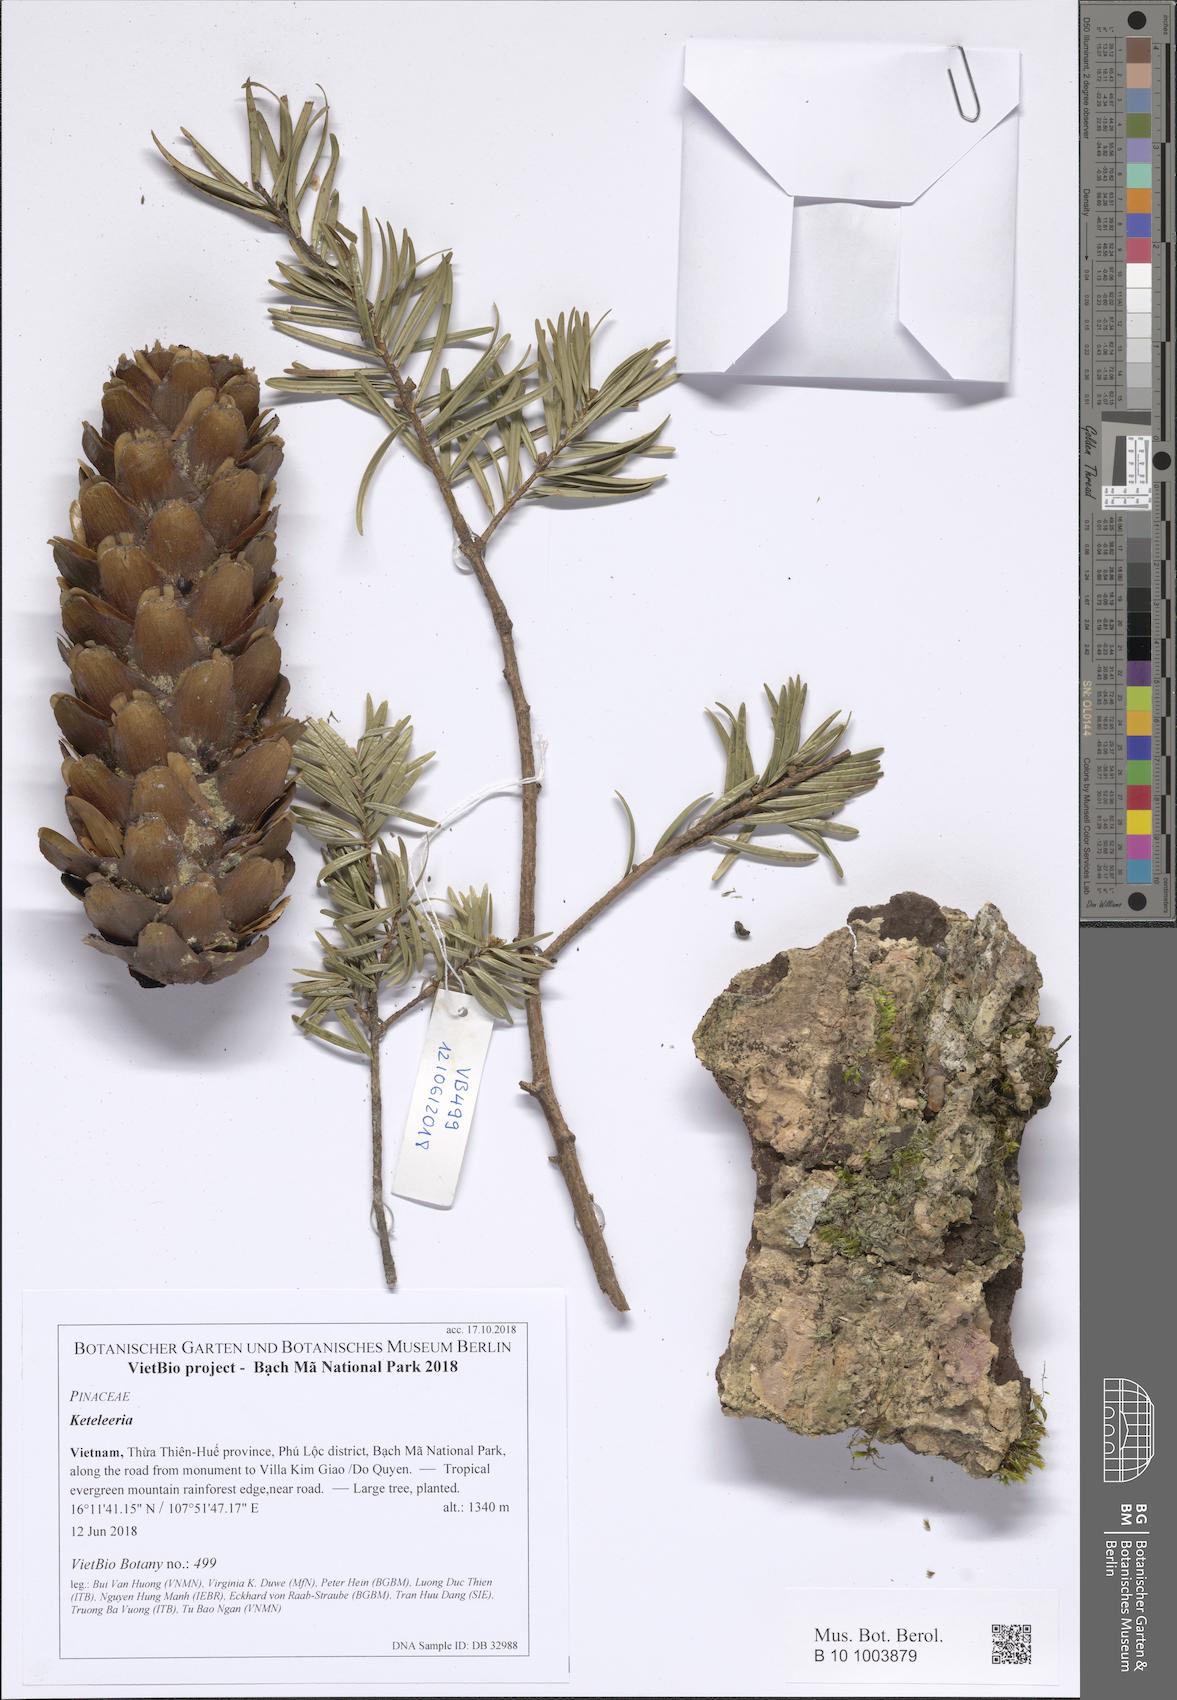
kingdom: Plantae
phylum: Tracheophyta
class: Pinopsida
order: Pinales
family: Pinaceae
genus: Keteleeria
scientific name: Keteleeria evelyniana
